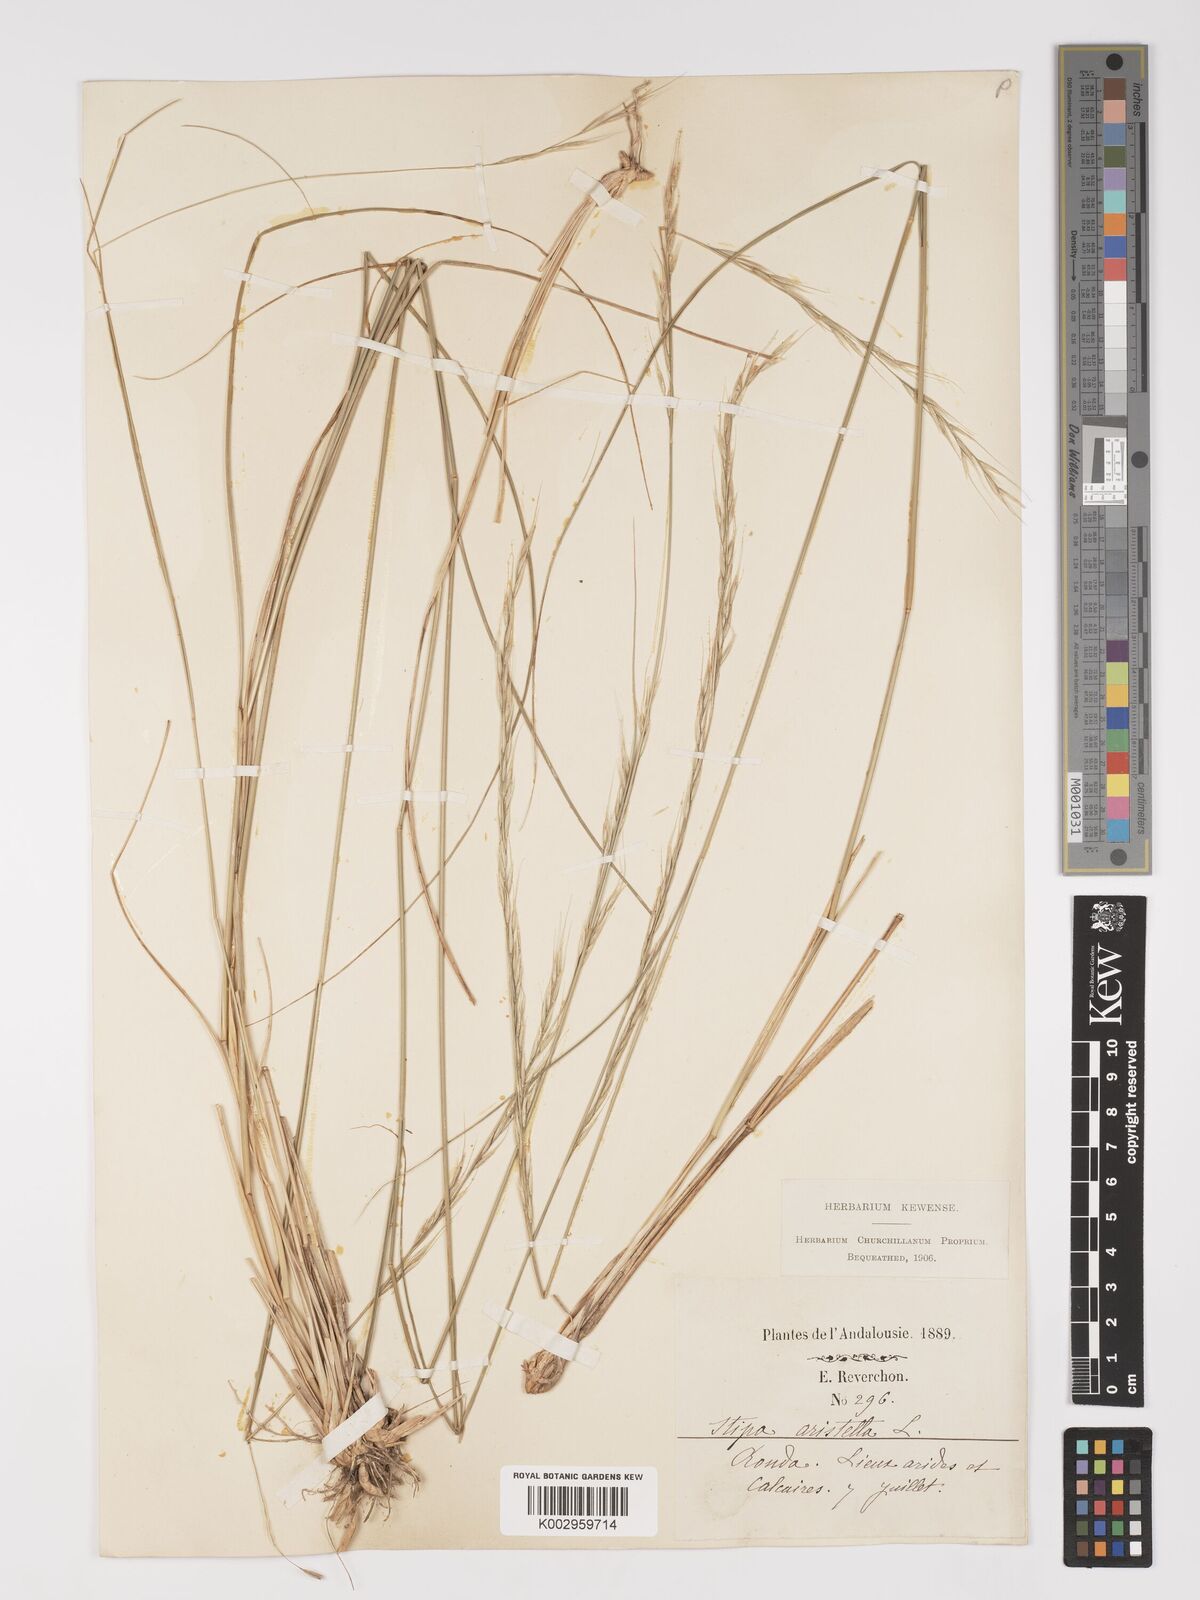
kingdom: Plantae
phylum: Tracheophyta
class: Liliopsida
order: Poales
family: Poaceae
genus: Achnatherum
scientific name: Achnatherum bromoides
